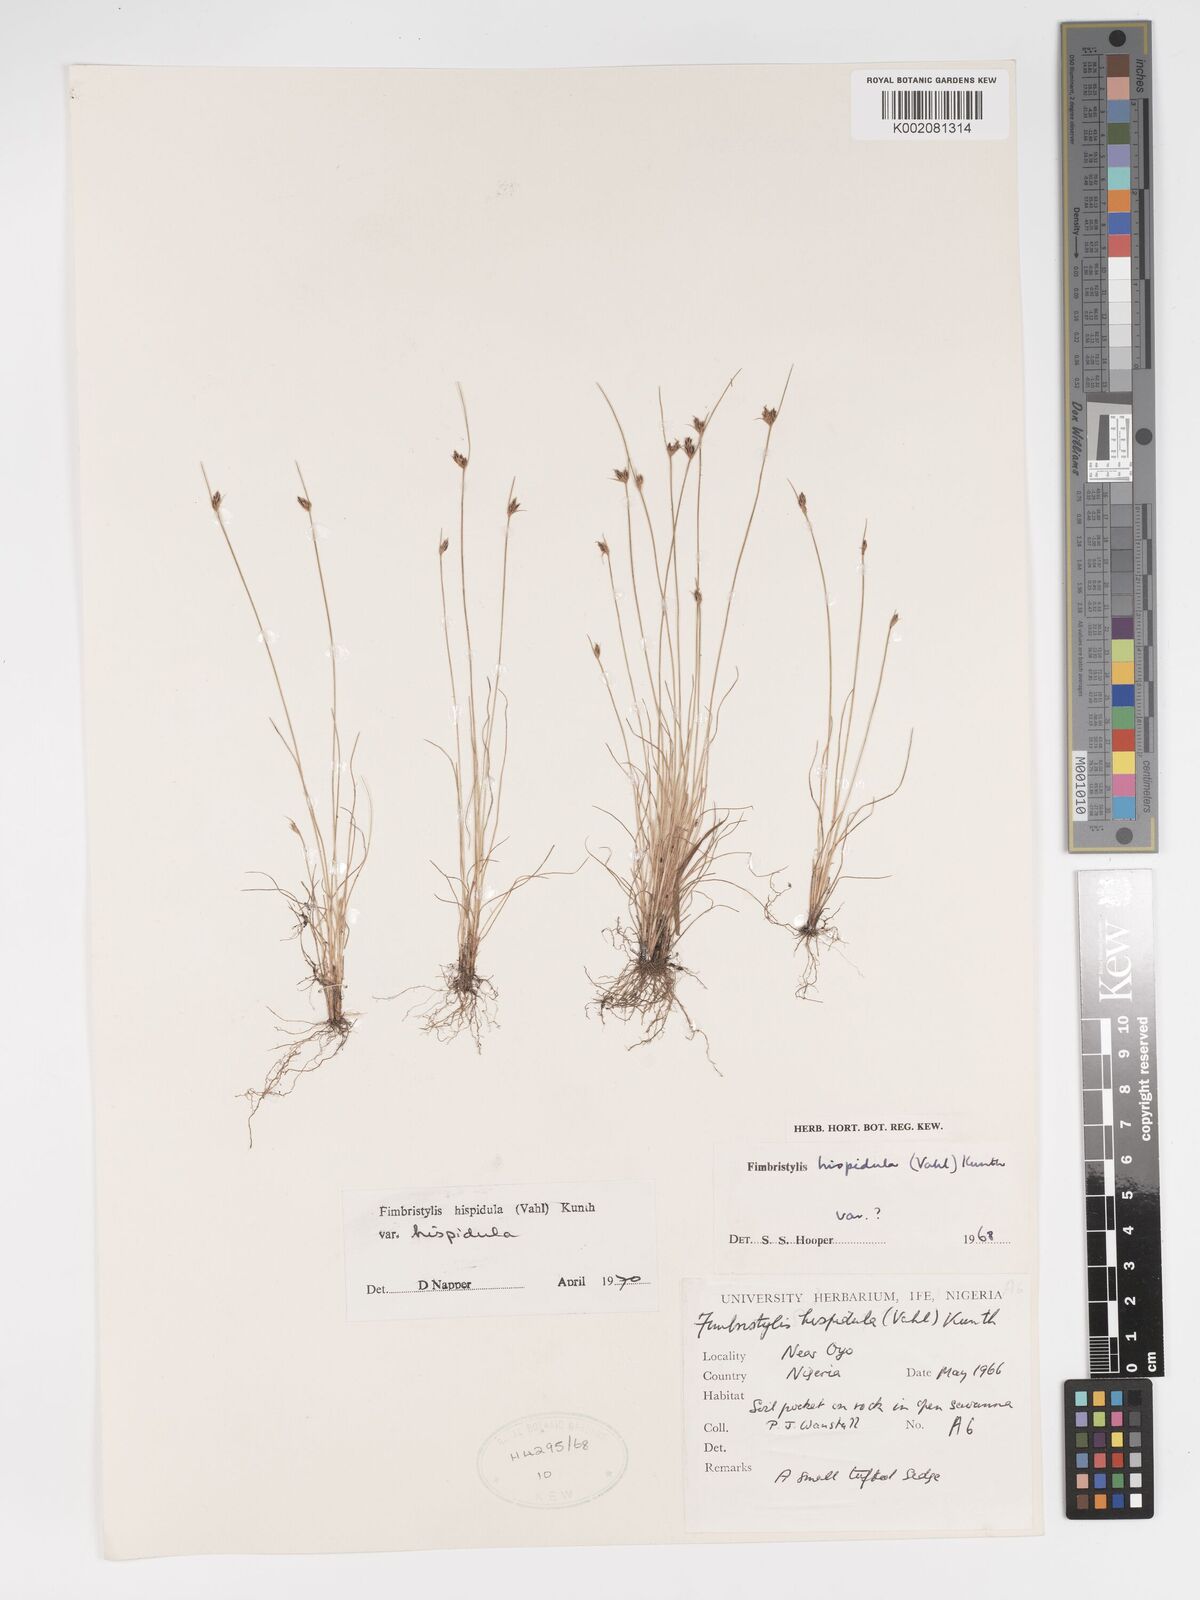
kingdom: Plantae
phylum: Tracheophyta
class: Liliopsida
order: Poales
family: Cyperaceae
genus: Bulbostylis
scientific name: Bulbostylis hispidula
